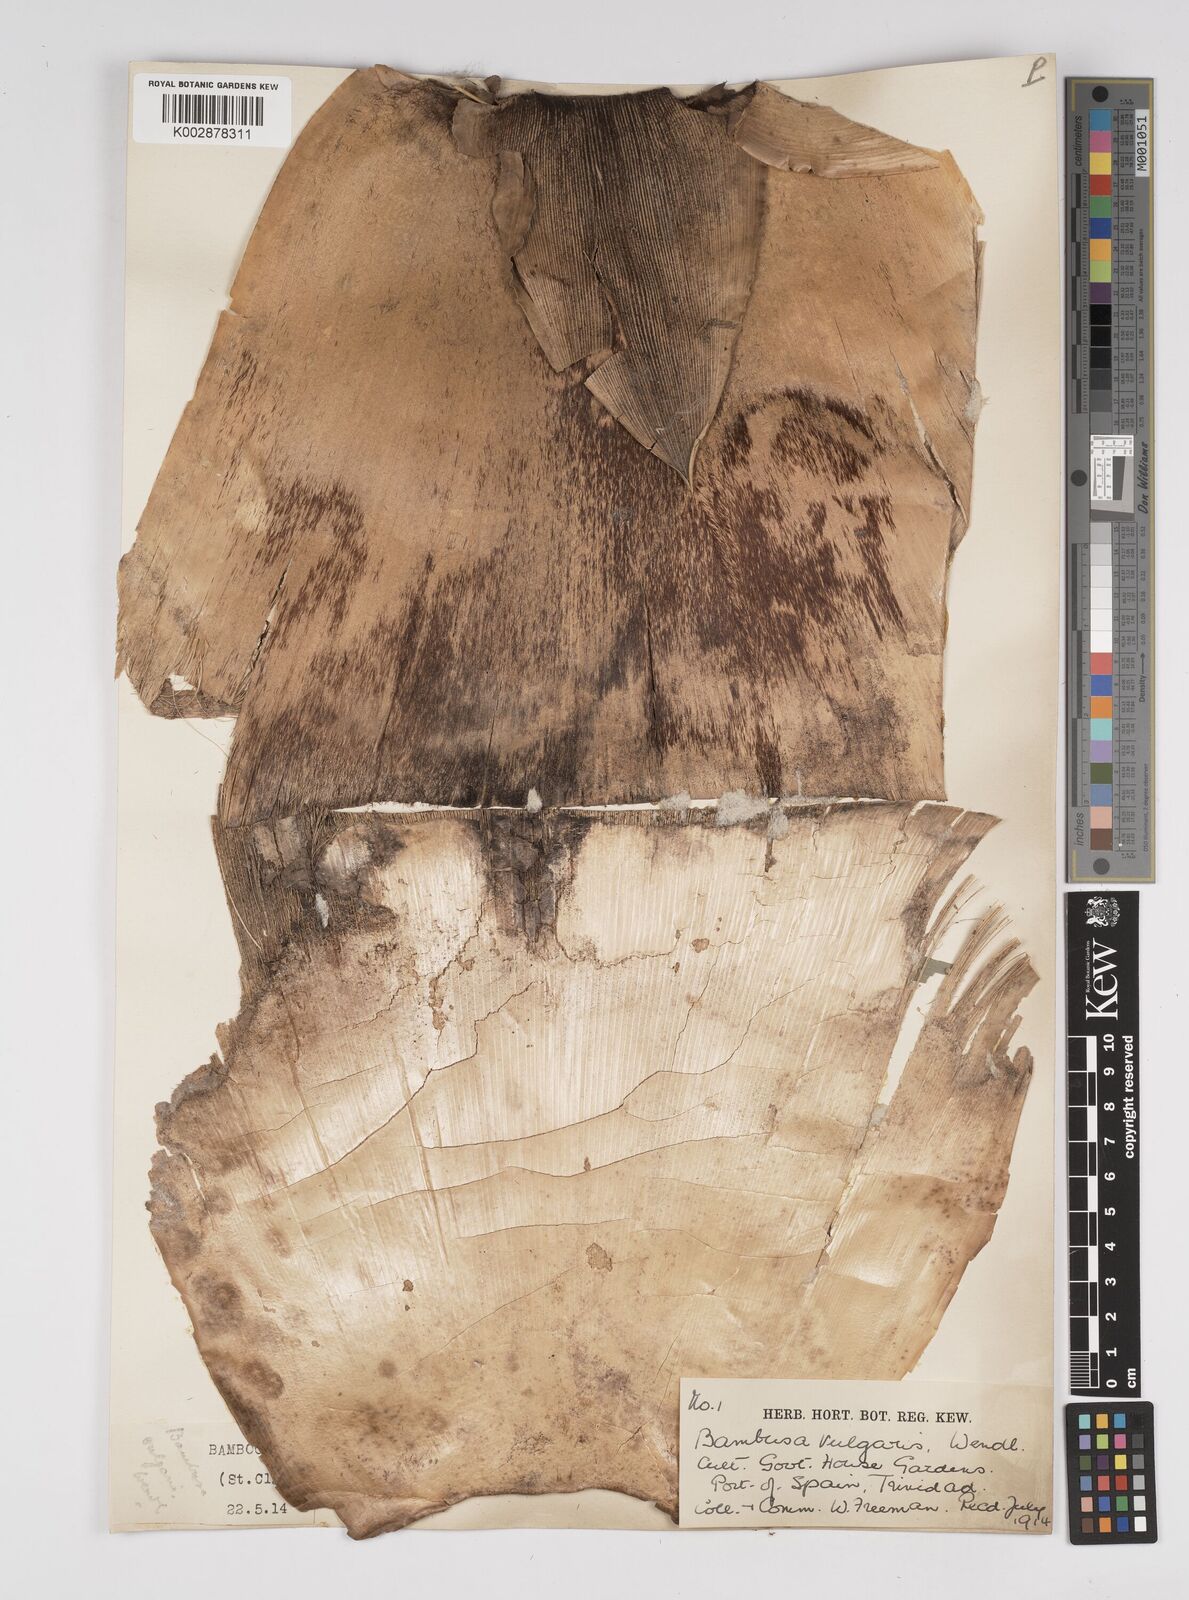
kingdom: Plantae
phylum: Tracheophyta
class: Liliopsida
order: Poales
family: Poaceae
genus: Bambusa
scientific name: Bambusa vulgaris
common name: Common bamboo
